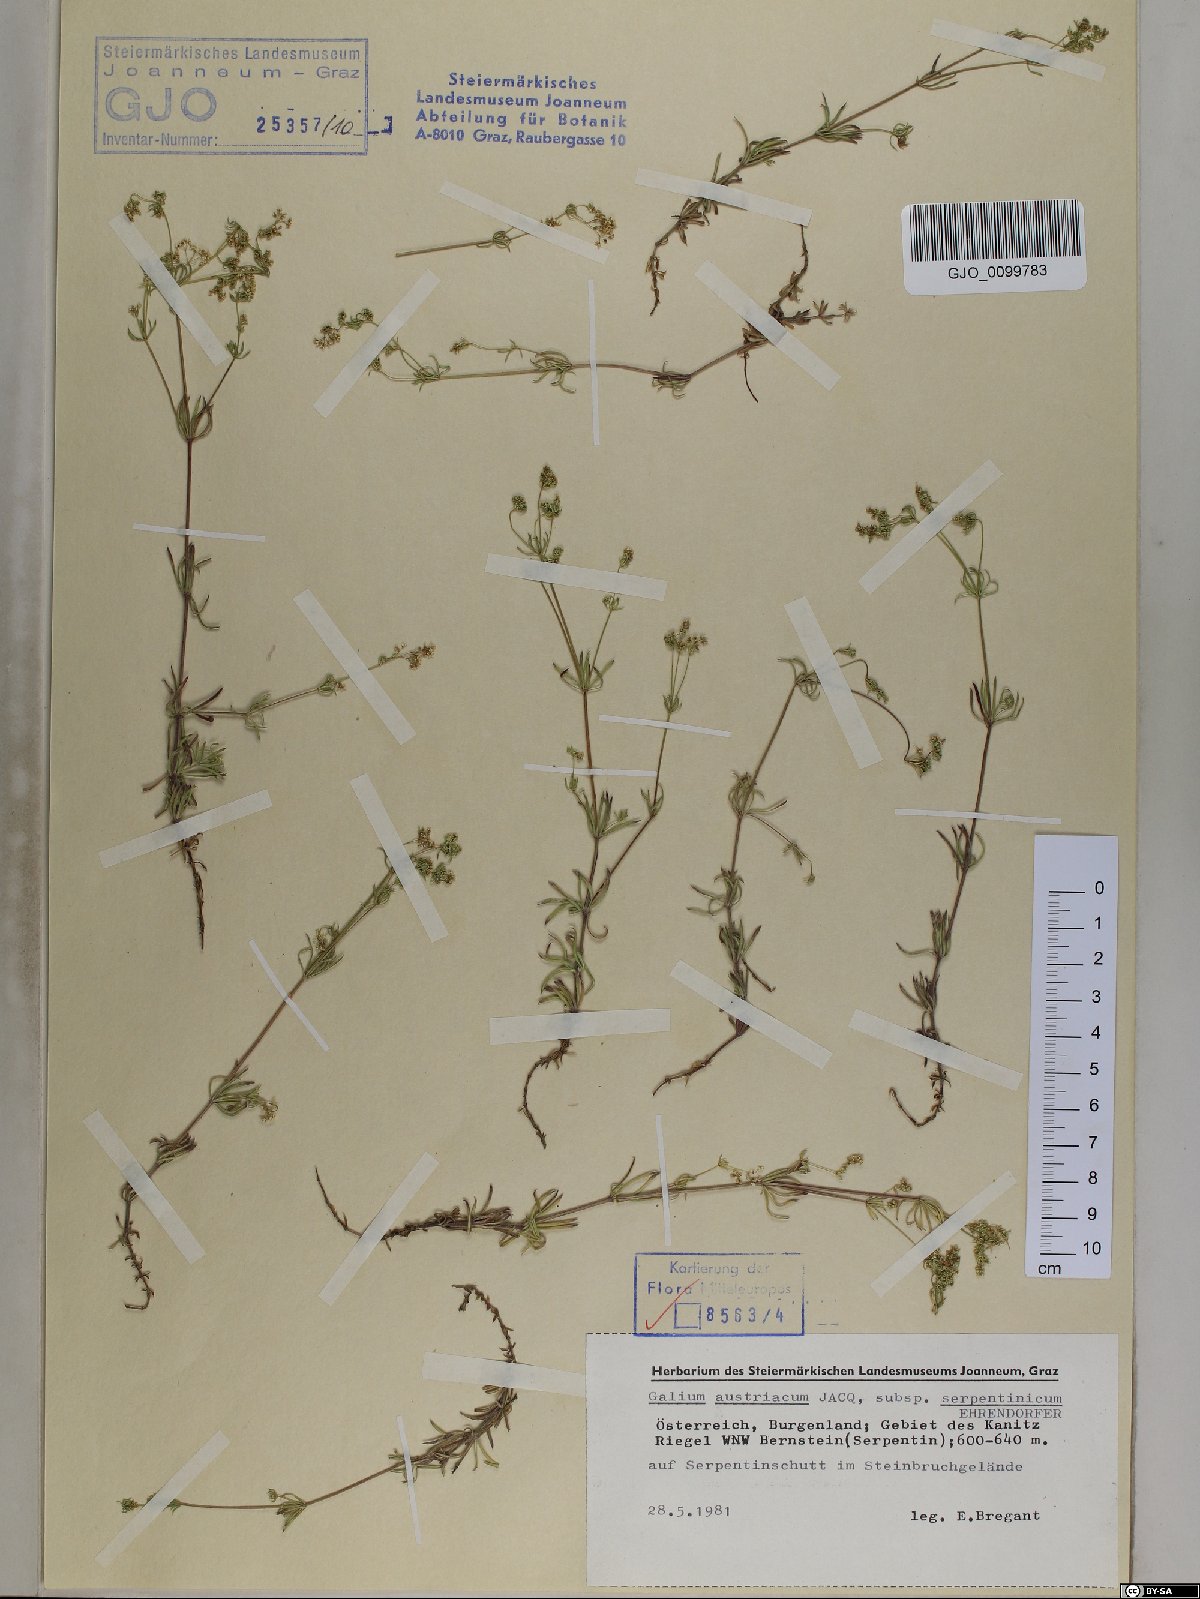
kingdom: Plantae
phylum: Tracheophyta
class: Magnoliopsida
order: Gentianales
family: Rubiaceae
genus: Galium
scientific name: Galium austriacum
